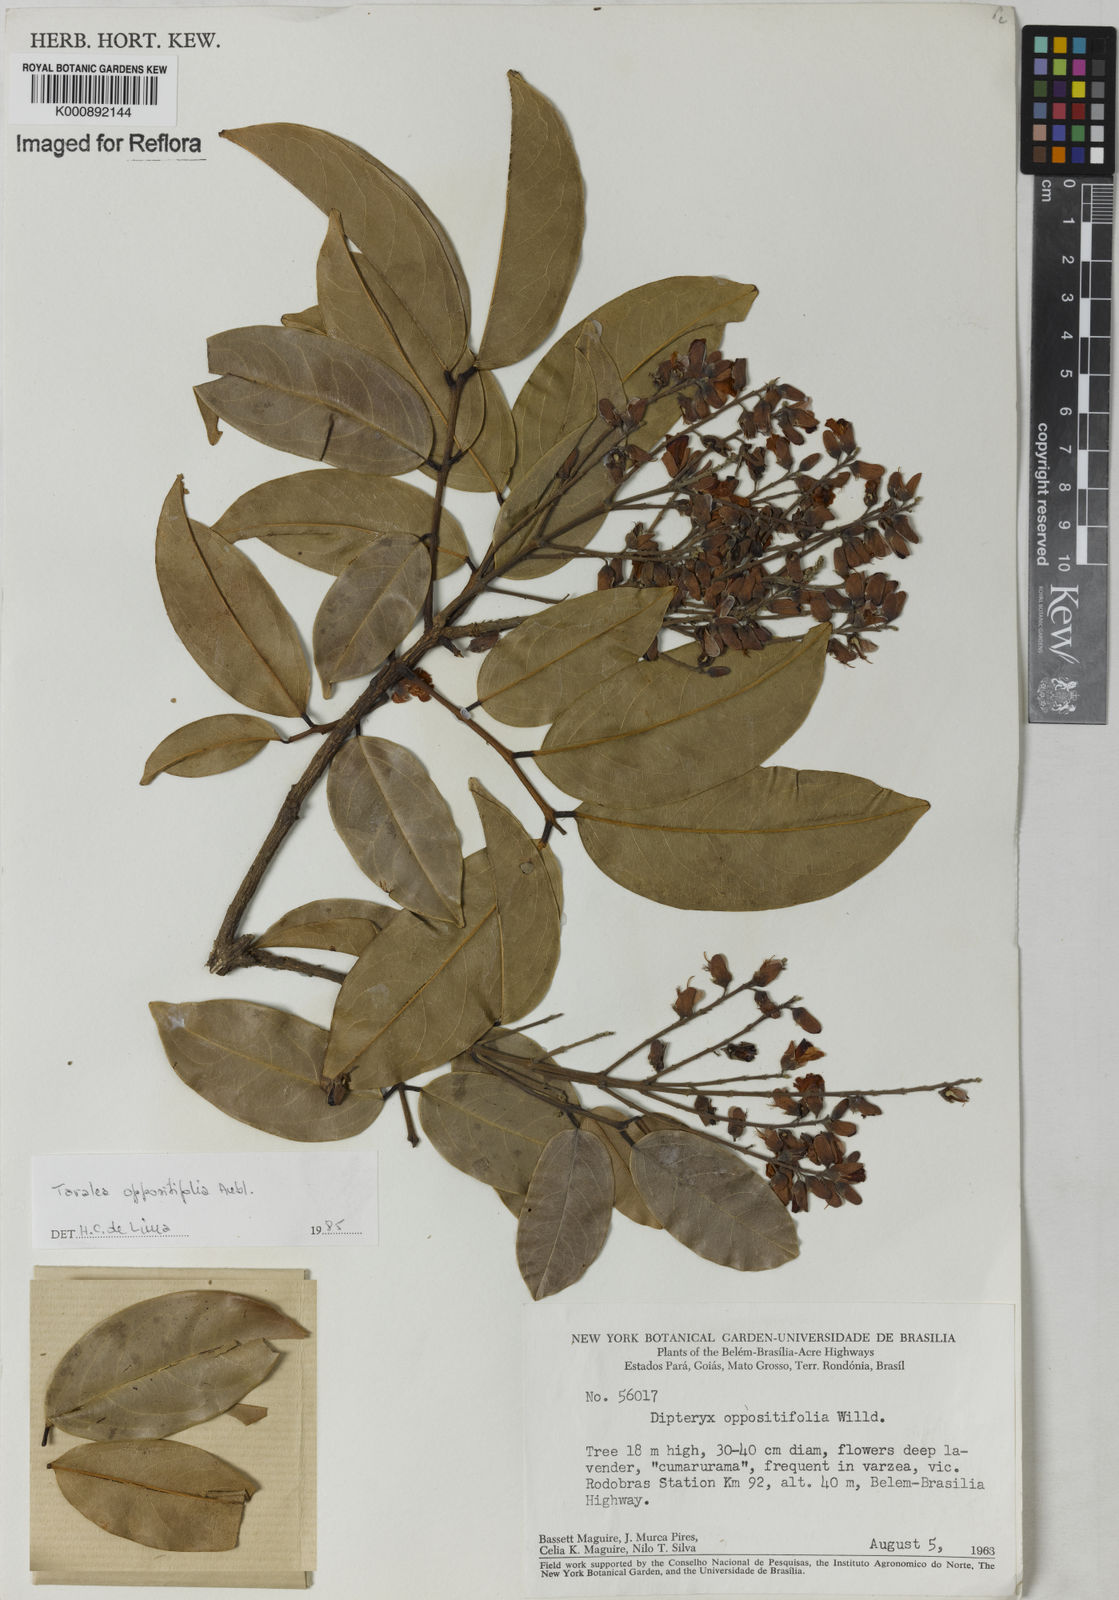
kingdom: Plantae
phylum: Tracheophyta
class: Magnoliopsida
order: Fabales
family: Fabaceae
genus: Taralea
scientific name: Taralea oppositifolia
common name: Tonka
